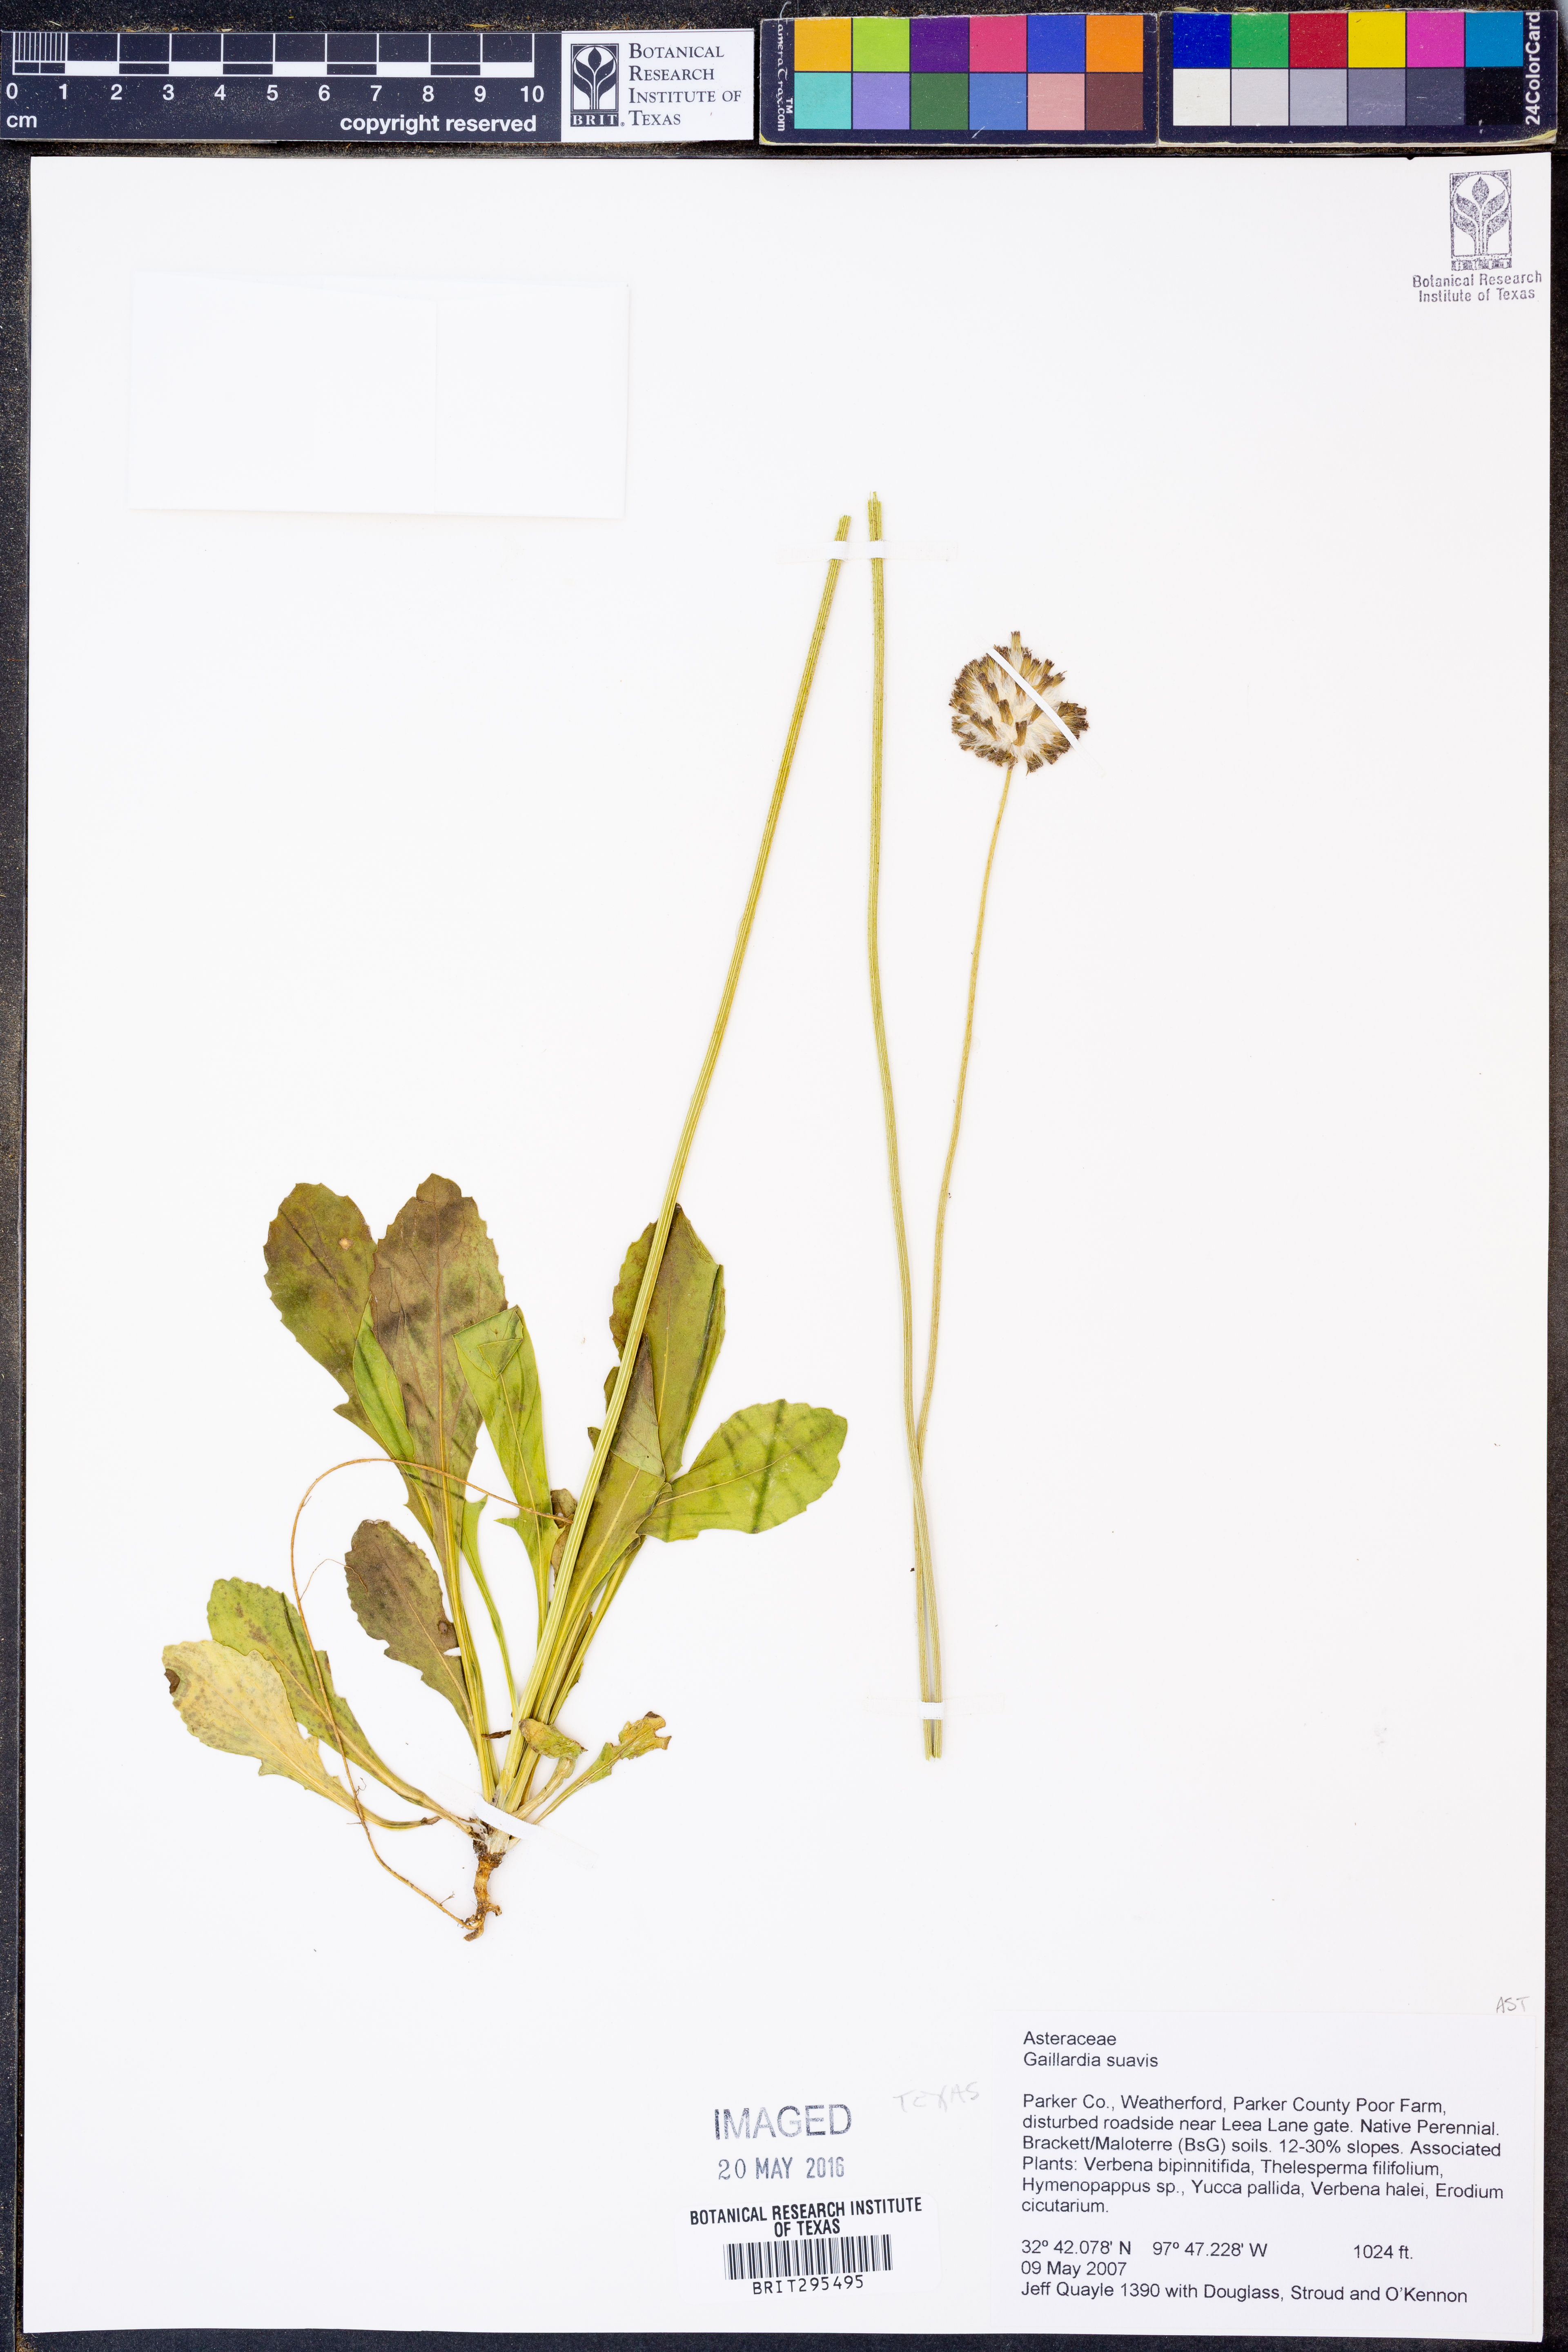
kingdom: Plantae
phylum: Tracheophyta
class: Magnoliopsida
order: Asterales
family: Asteraceae
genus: Gaillardia
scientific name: Gaillardia suavis
